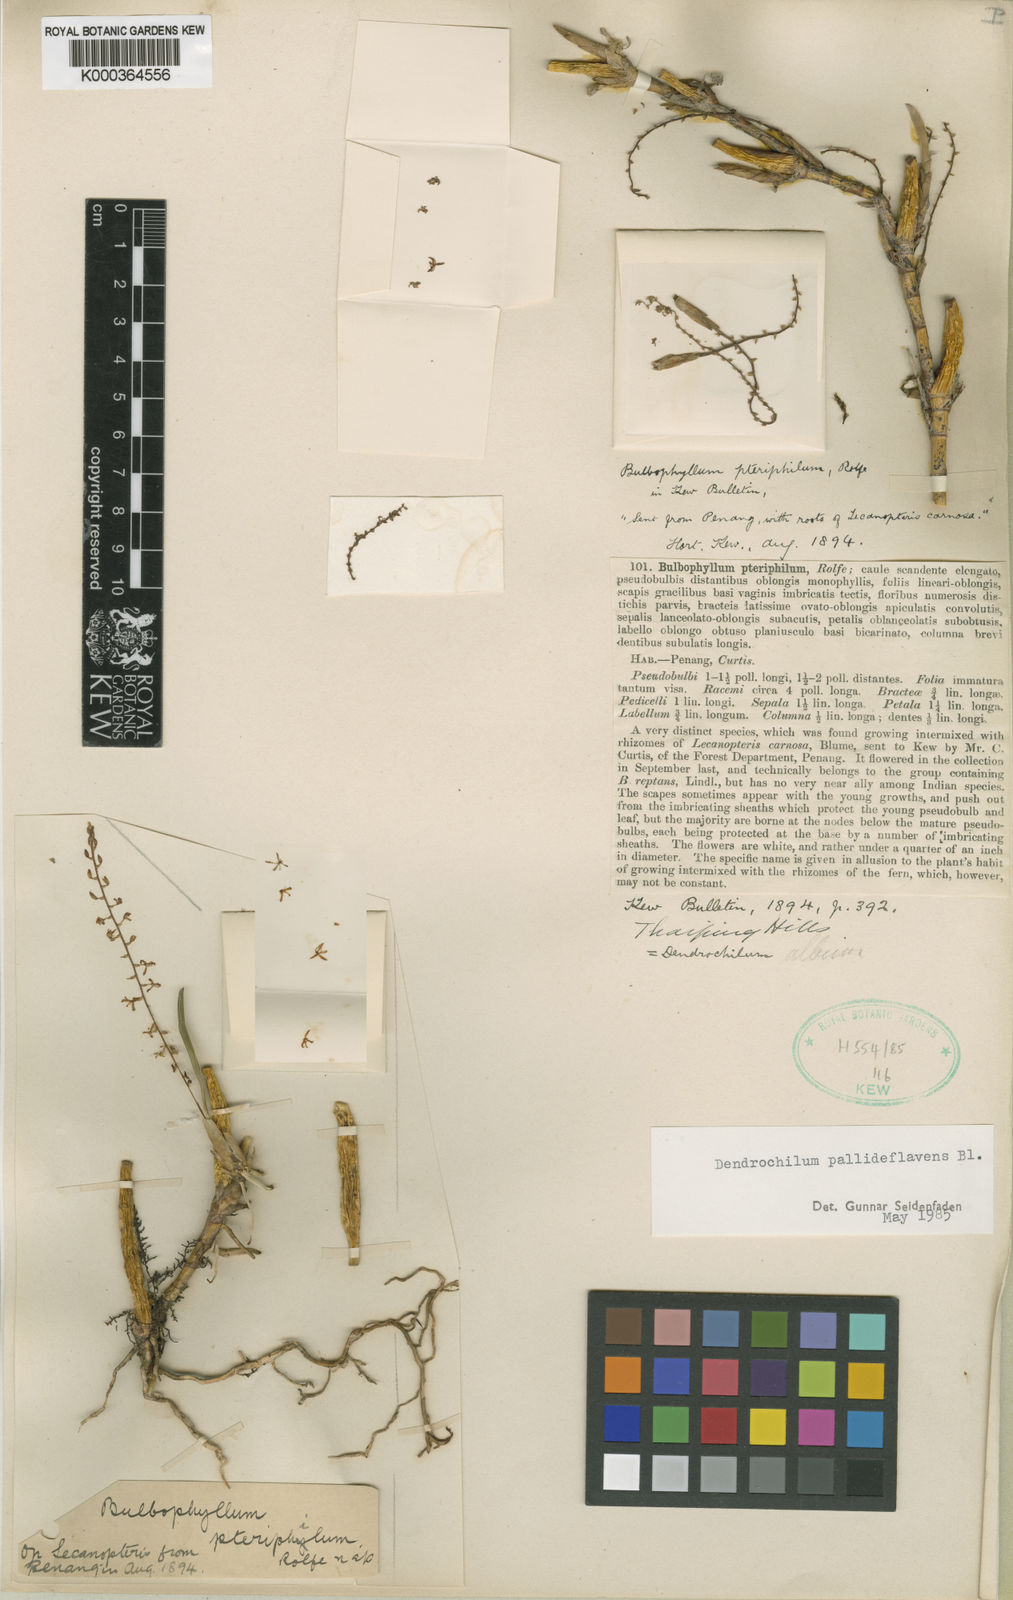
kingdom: Plantae
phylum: Tracheophyta
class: Liliopsida
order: Asparagales
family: Orchidaceae
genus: Coelogyne
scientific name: Coelogyne pallidiflavens
